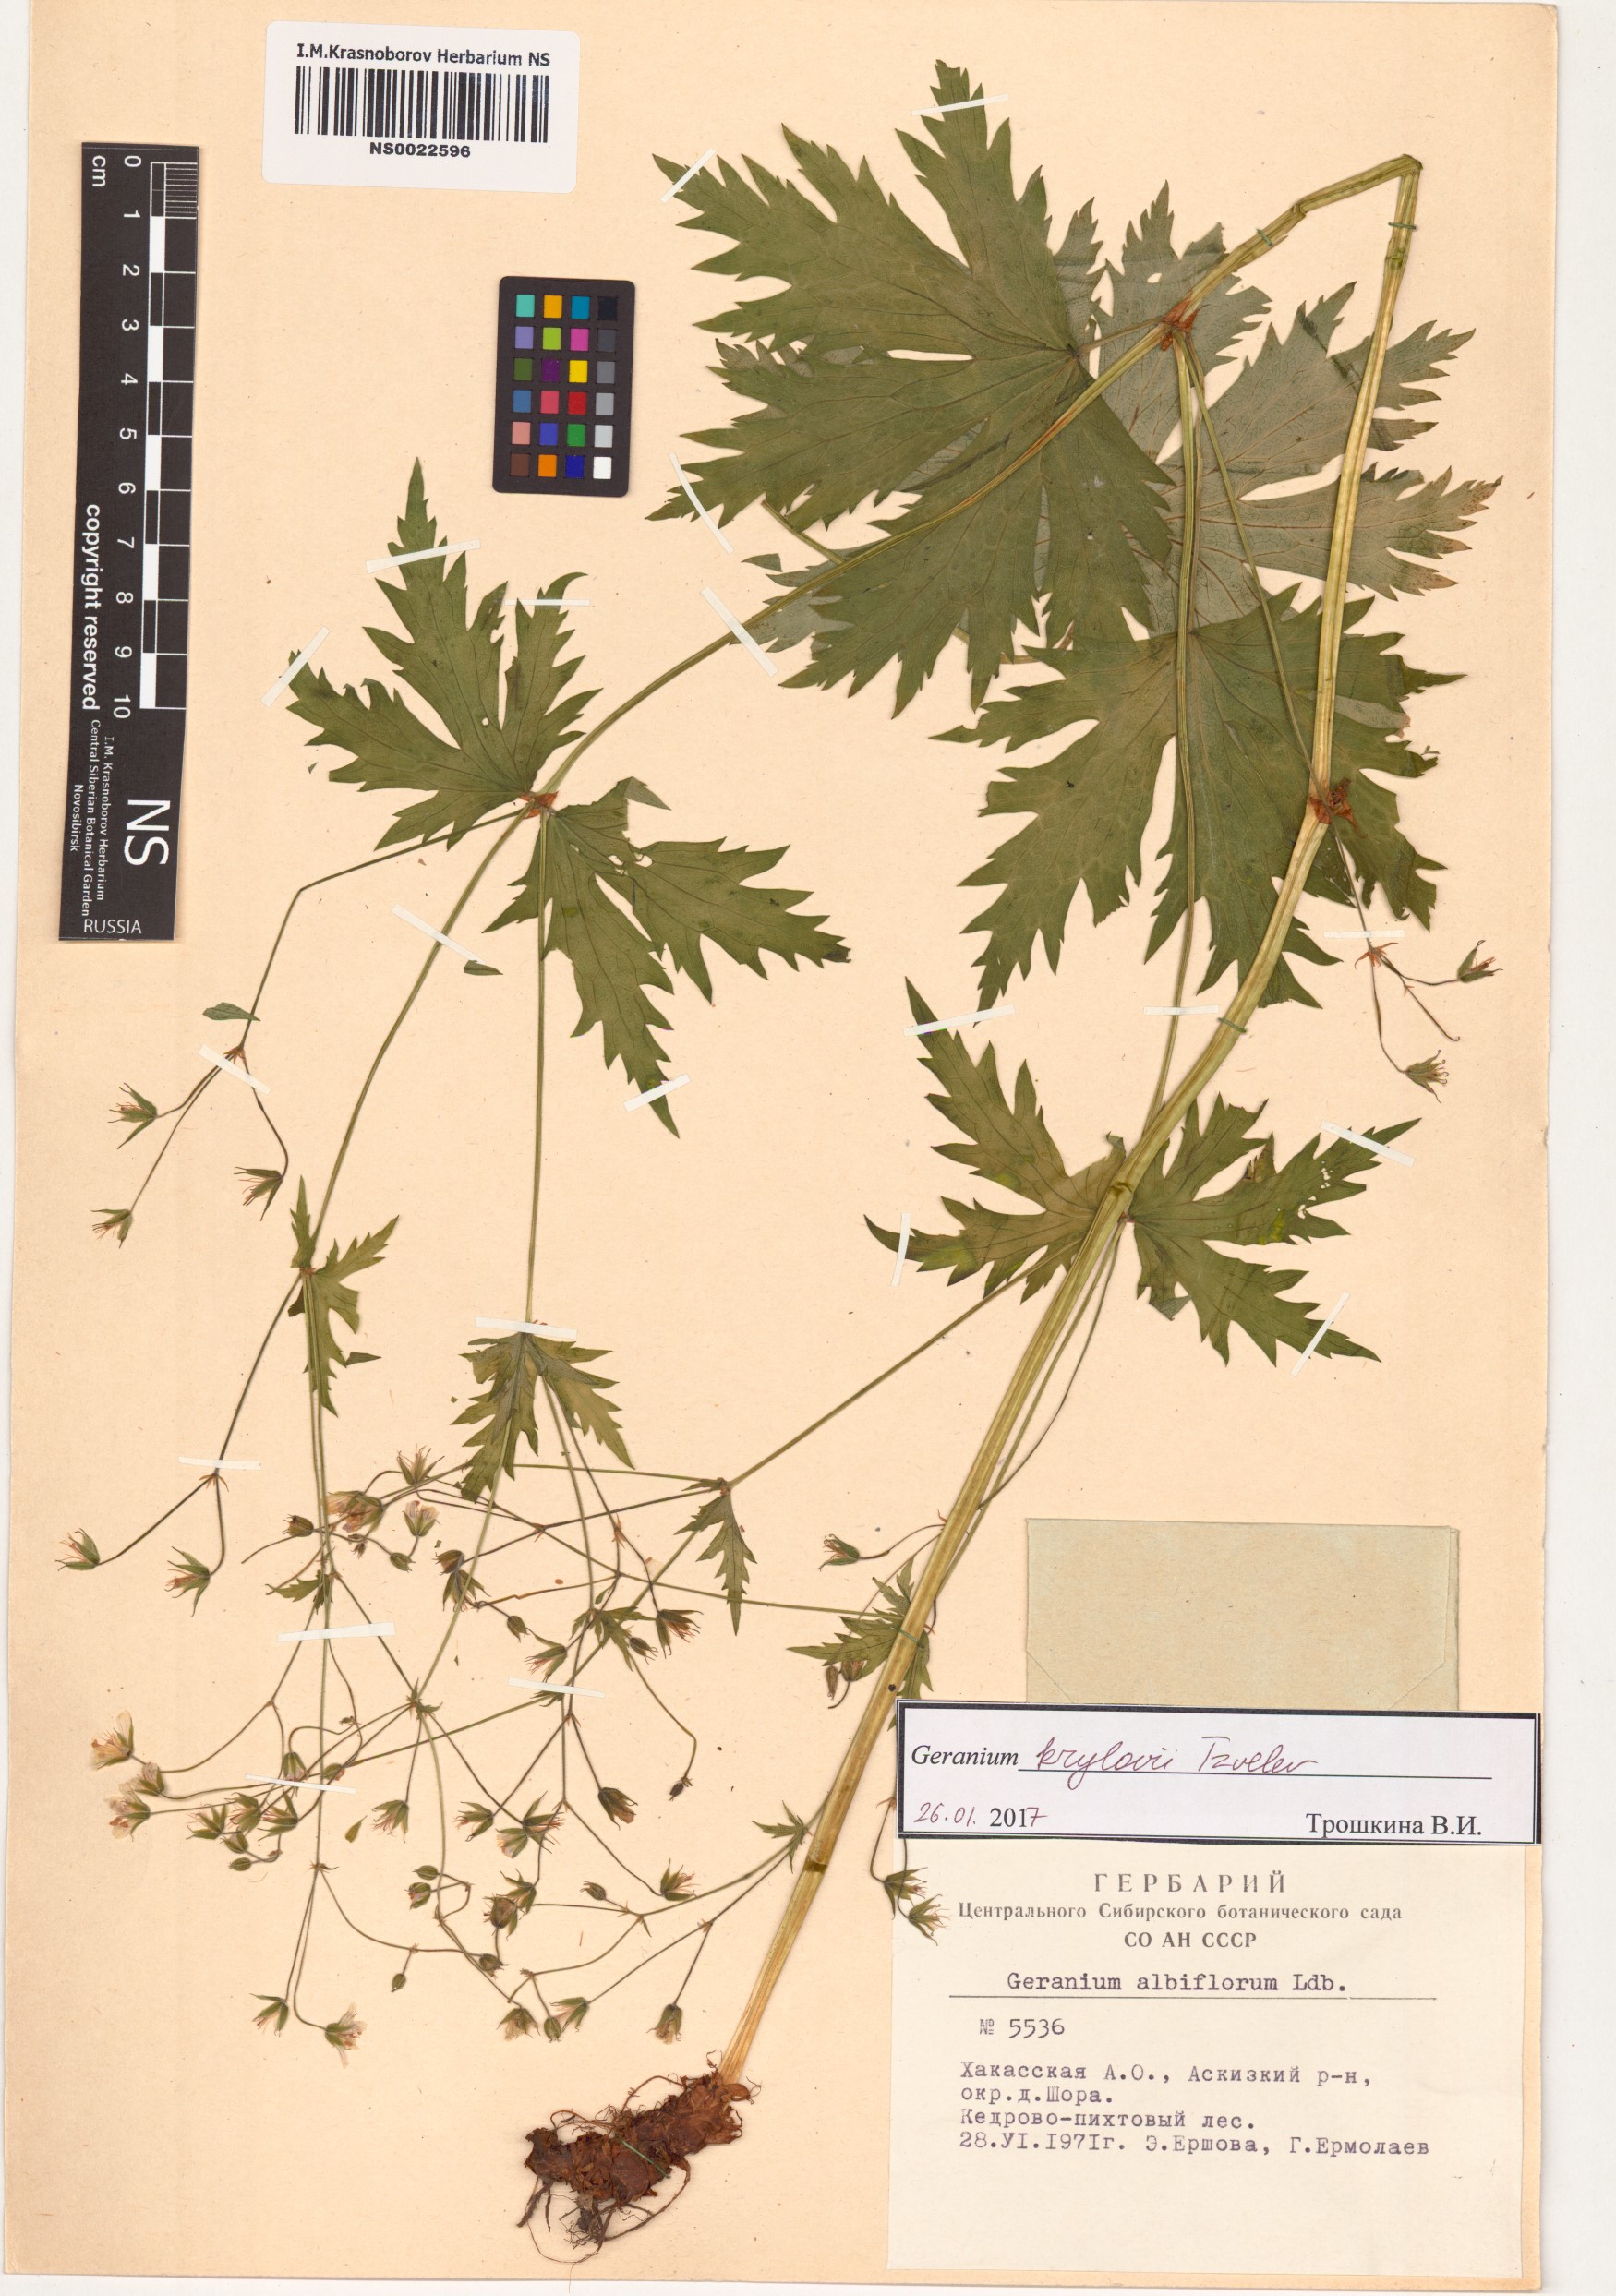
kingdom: Plantae
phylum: Tracheophyta
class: Magnoliopsida
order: Geraniales
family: Geraniaceae
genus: Geranium
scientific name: Geranium sylvaticum
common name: Wood crane's-bill
